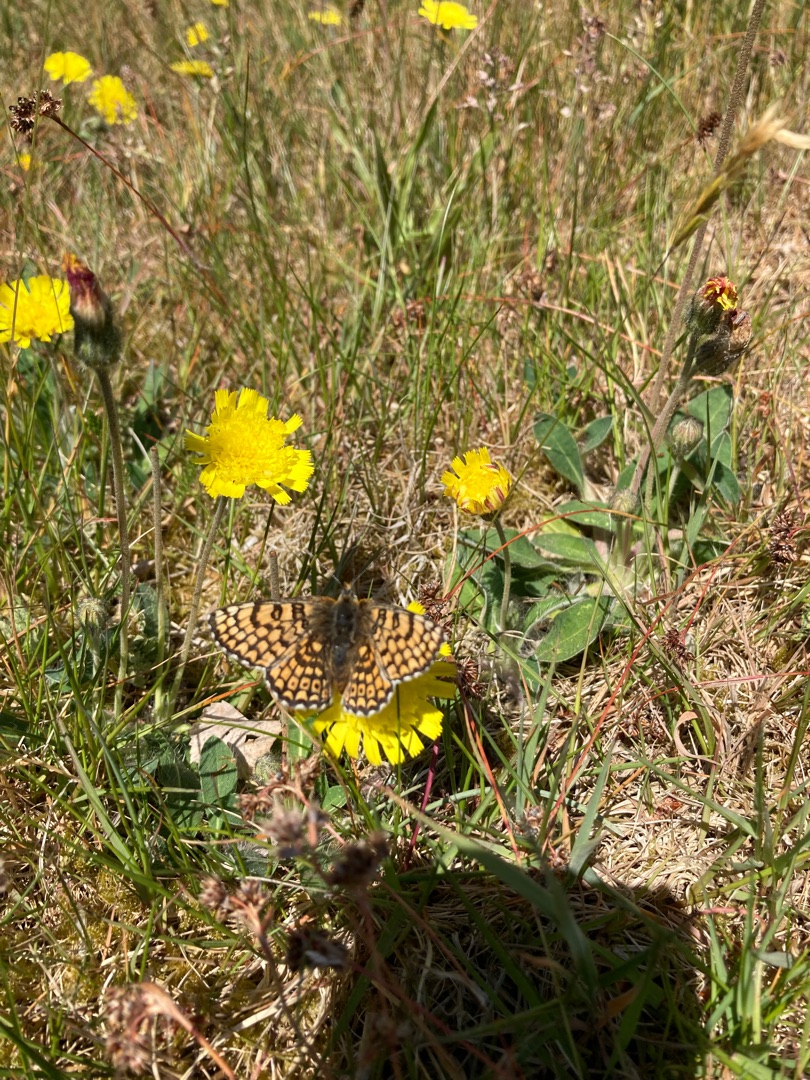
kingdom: Animalia
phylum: Arthropoda
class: Insecta
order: Lepidoptera
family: Nymphalidae
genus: Melitaea
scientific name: Melitaea cinxia
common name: Okkergul pletvinge
